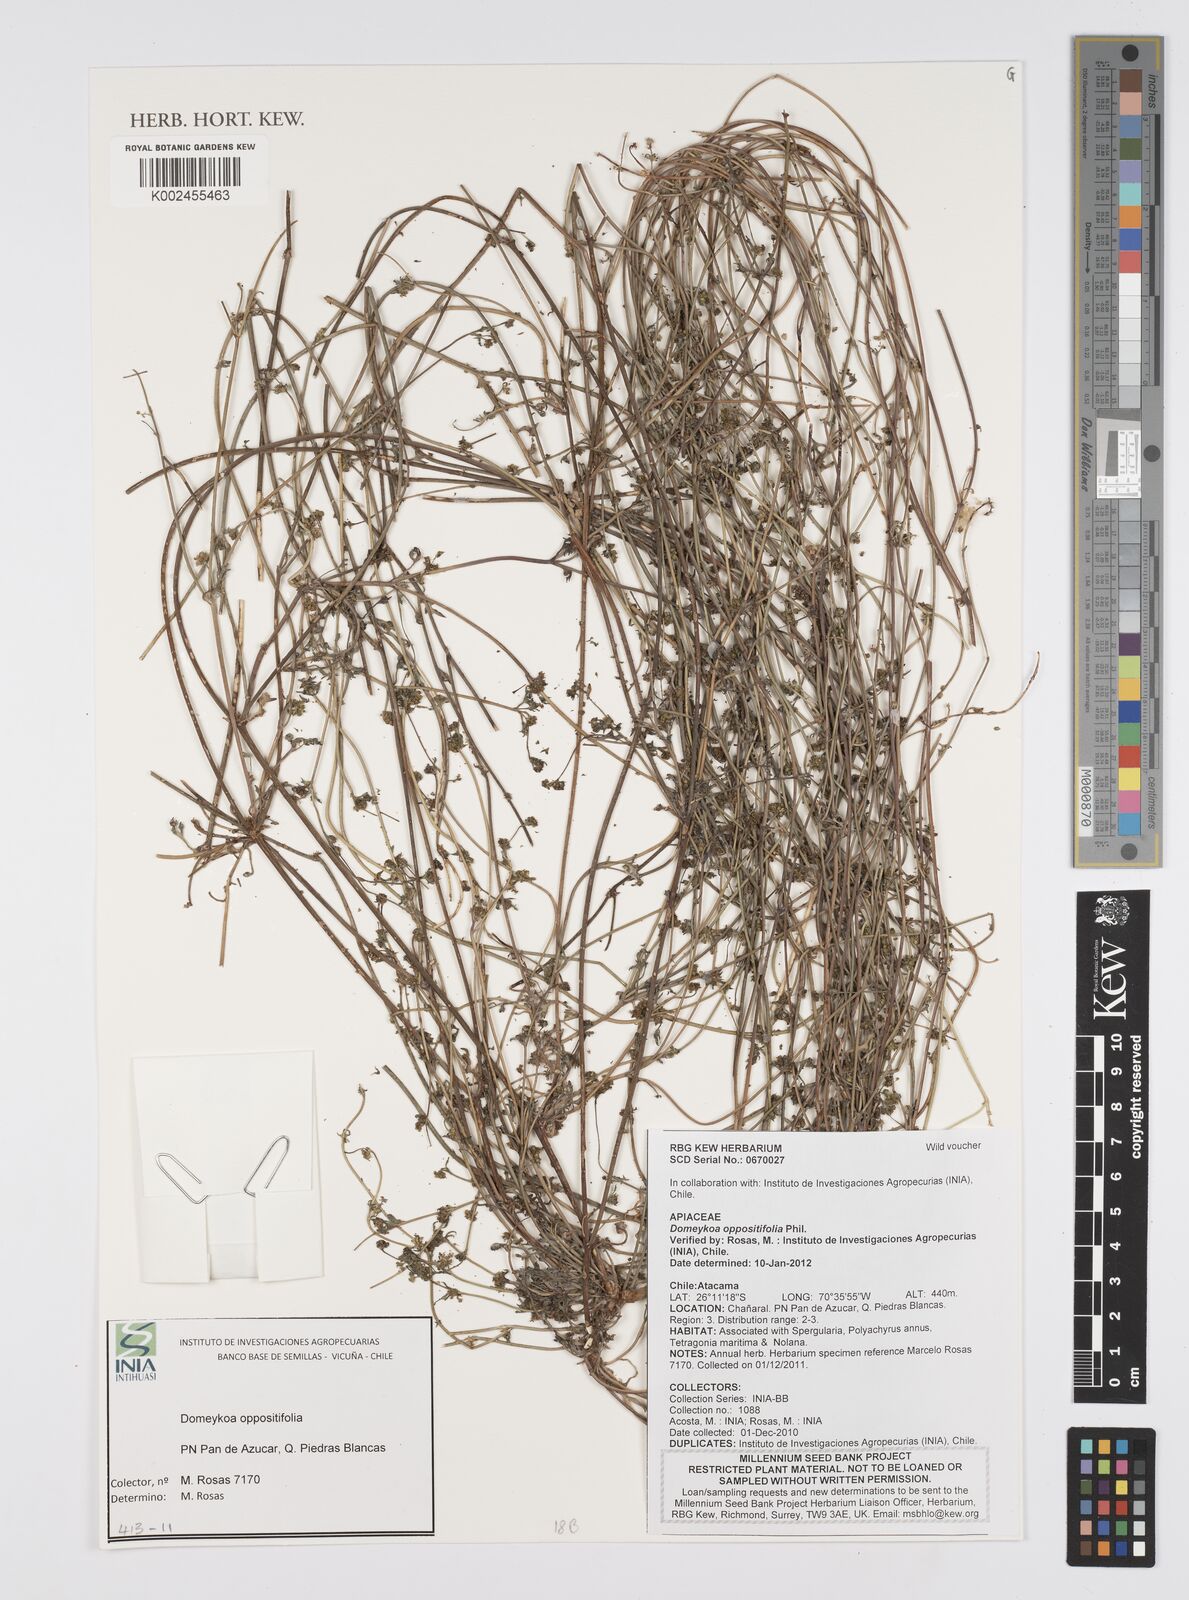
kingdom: Plantae
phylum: Tracheophyta
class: Magnoliopsida
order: Apiales
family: Apiaceae
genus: Domeykoa
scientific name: Domeykoa oppositifolia
